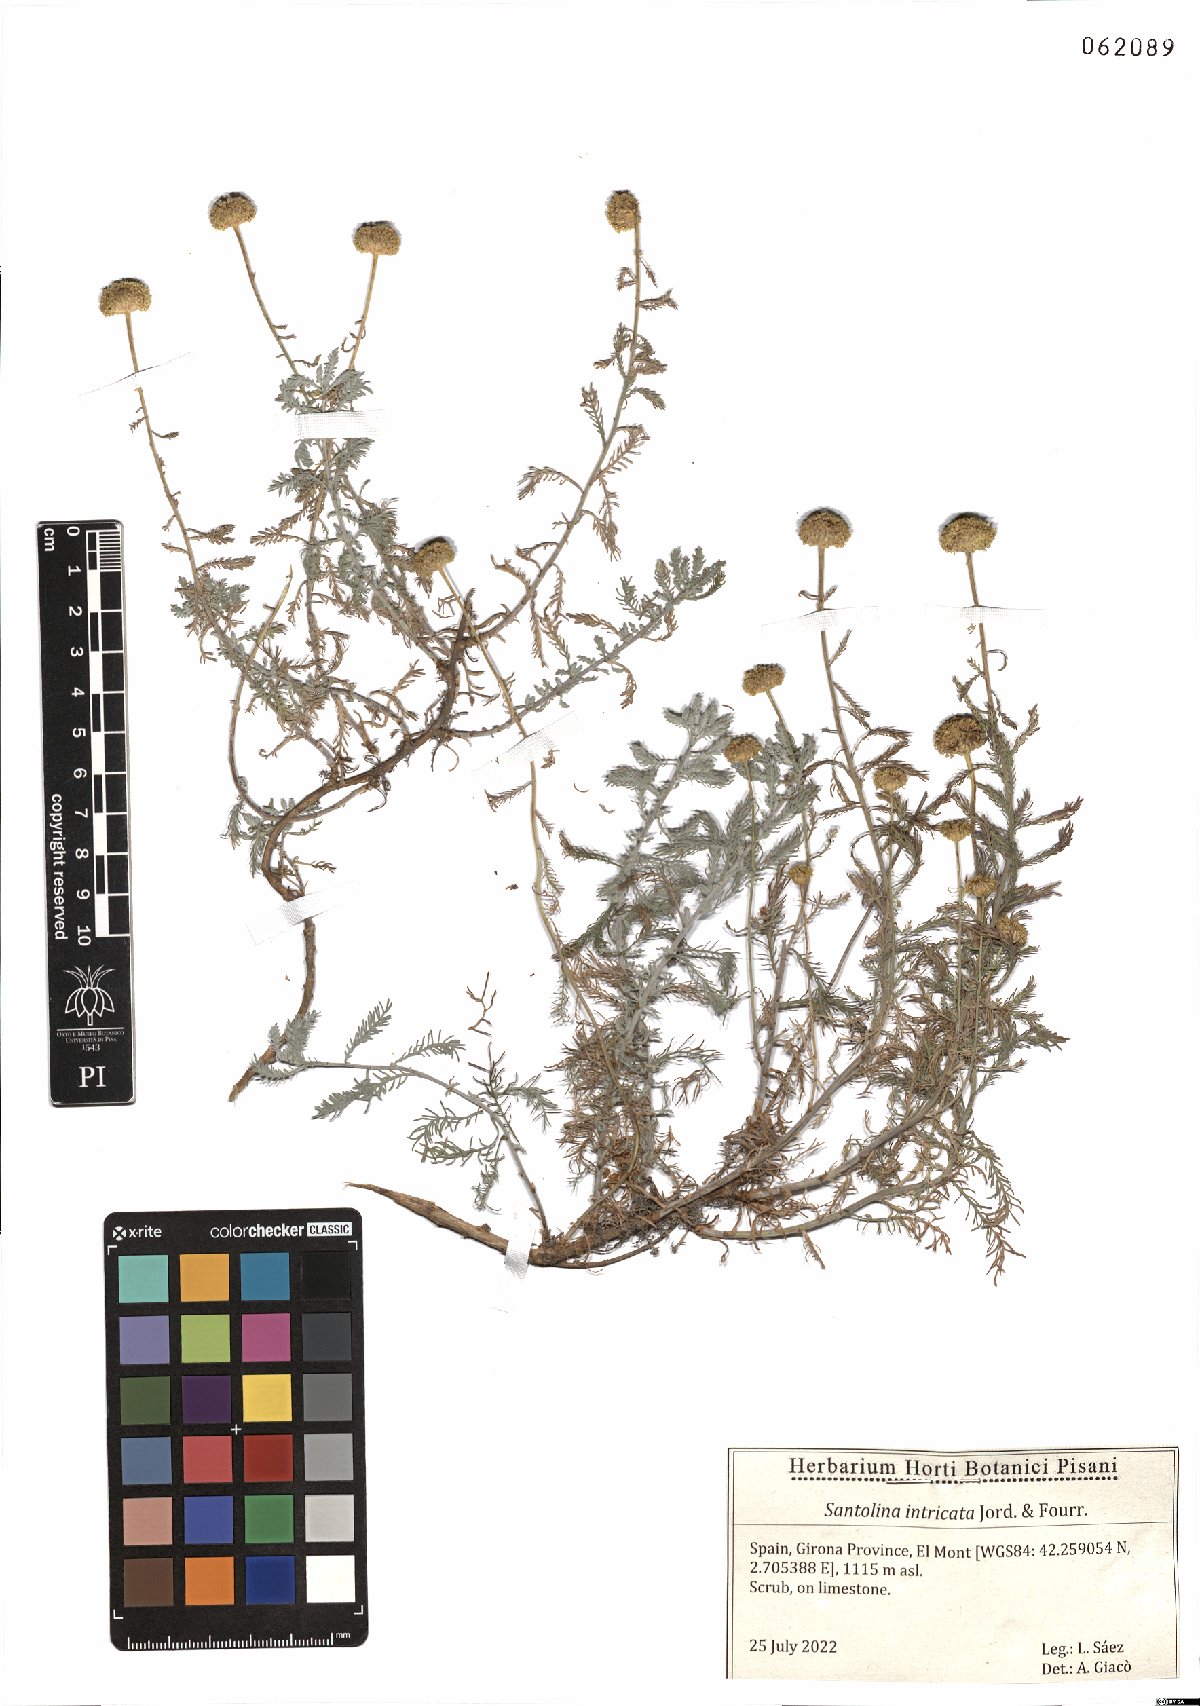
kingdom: Plantae
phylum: Tracheophyta
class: Magnoliopsida
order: Asterales
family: Asteraceae
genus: Santolina
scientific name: Santolina benthamiana
